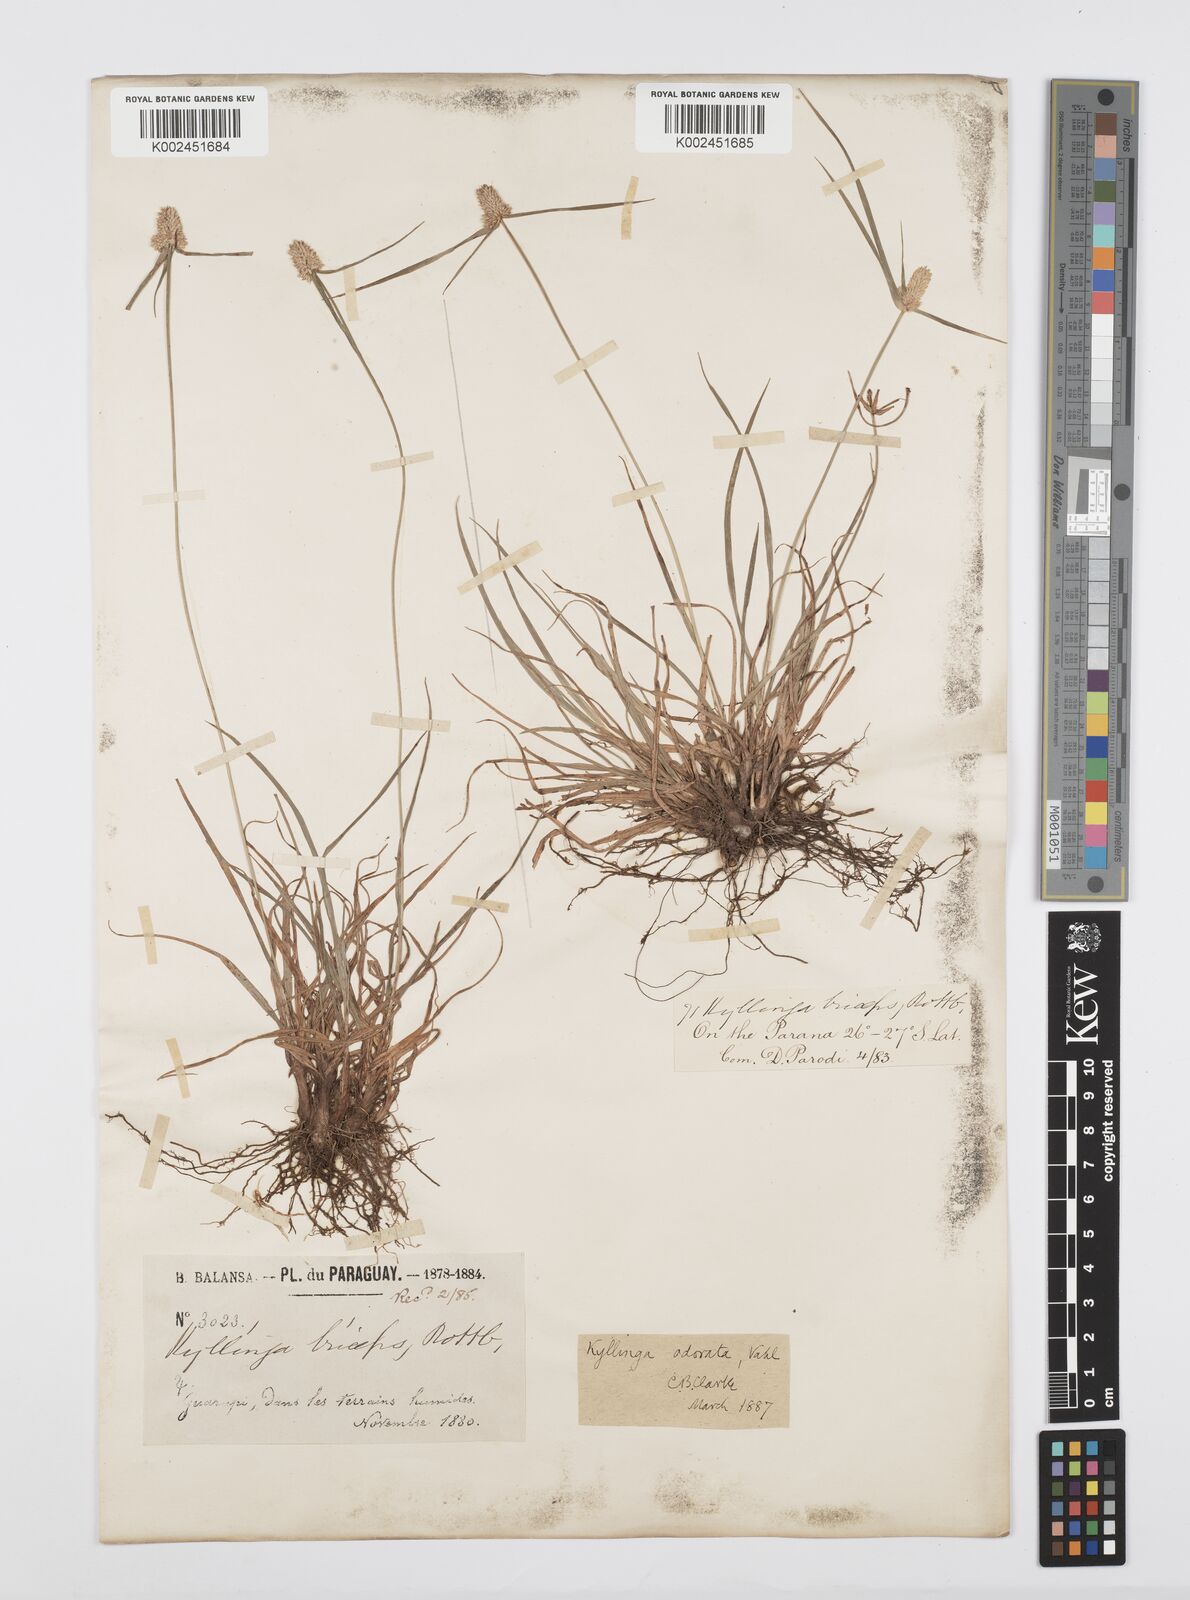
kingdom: Plantae
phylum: Tracheophyta
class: Liliopsida
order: Poales
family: Cyperaceae
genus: Cyperus
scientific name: Cyperus
